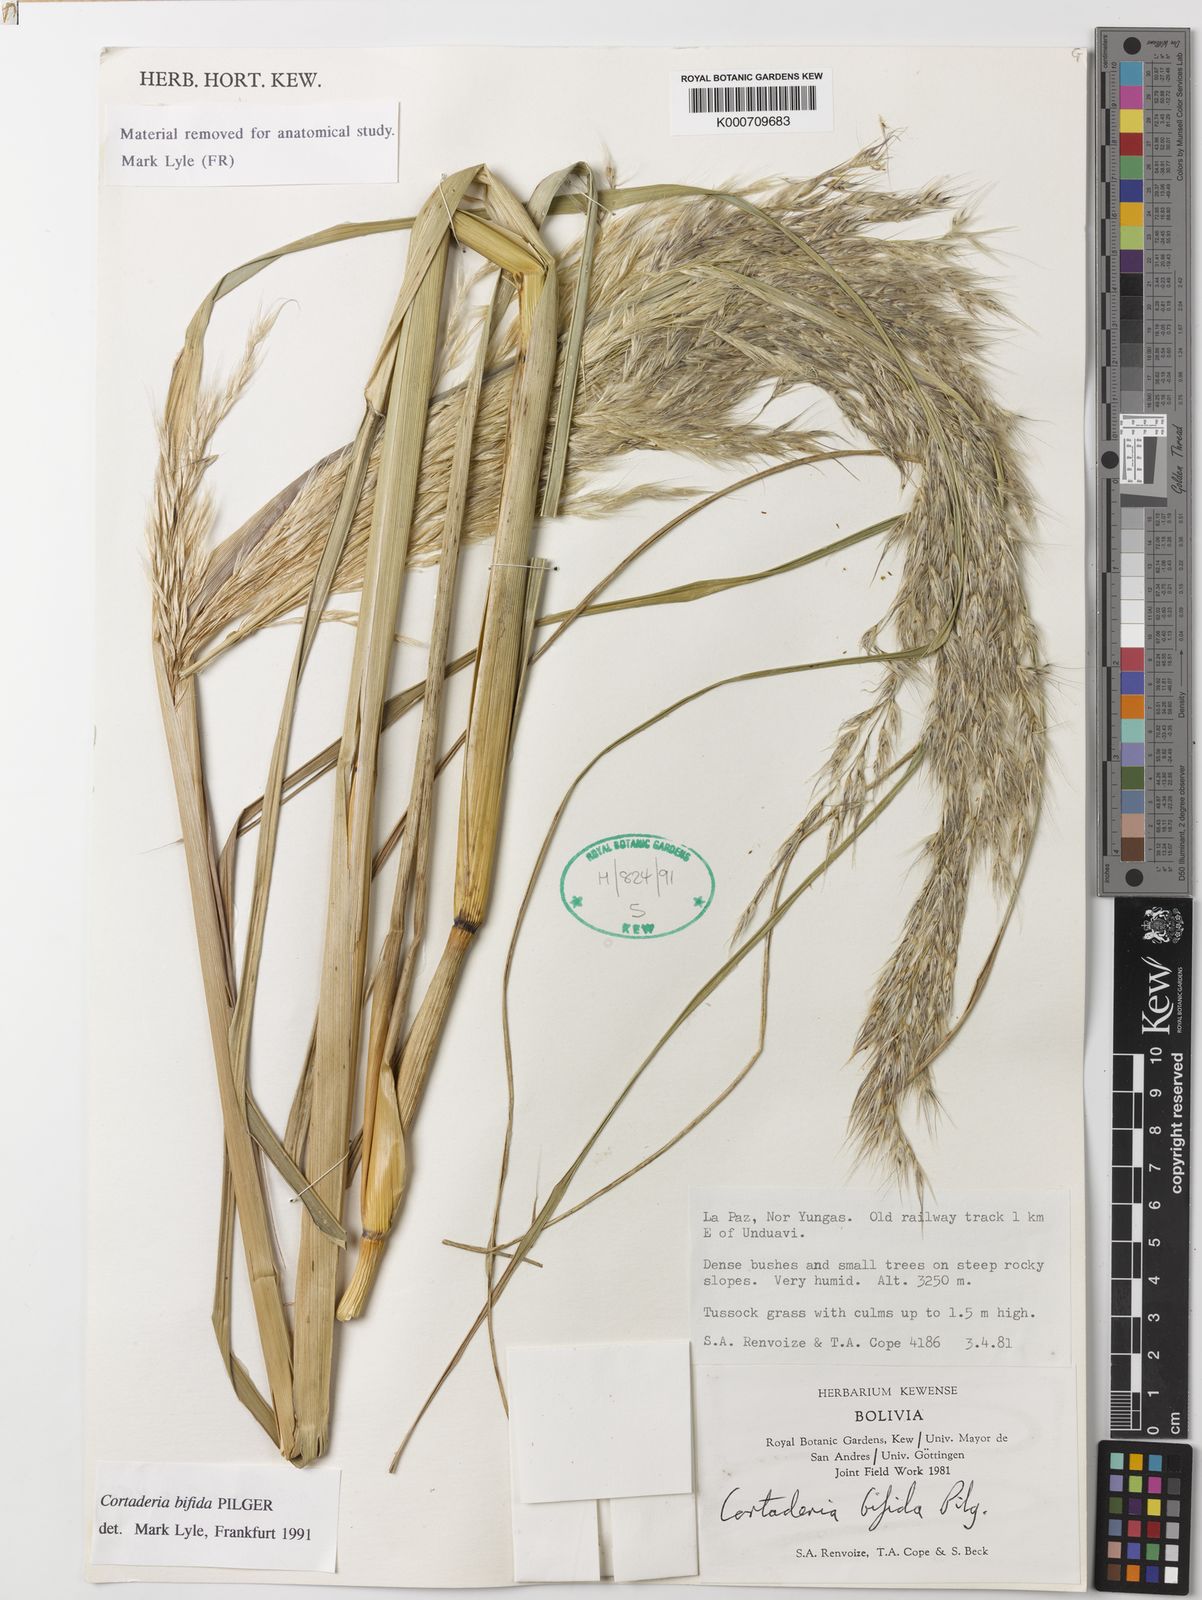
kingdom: Plantae
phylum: Tracheophyta
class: Liliopsida
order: Poales
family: Poaceae
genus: Cortaderia
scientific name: Cortaderia bifida
